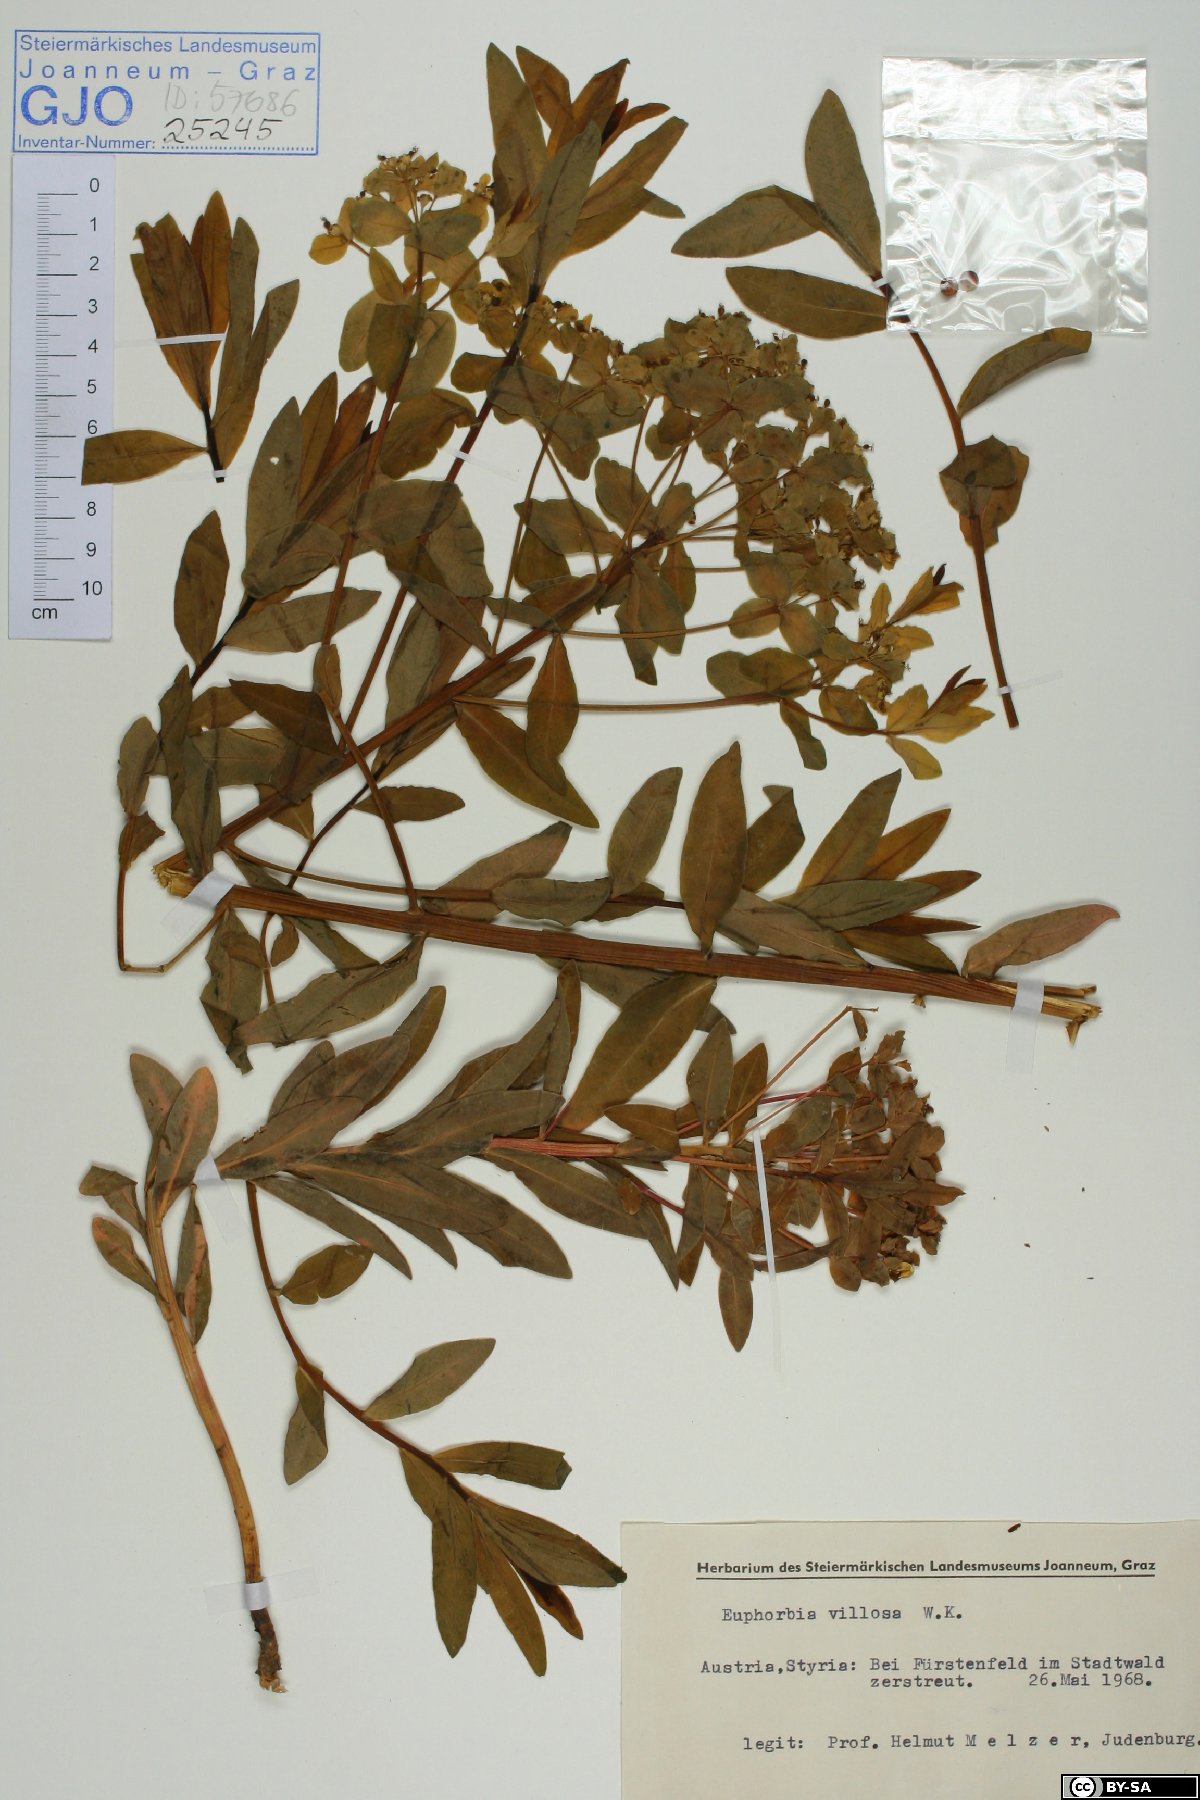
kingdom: Plantae
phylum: Tracheophyta
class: Magnoliopsida
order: Malpighiales
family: Euphorbiaceae
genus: Euphorbia
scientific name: Euphorbia illirica
